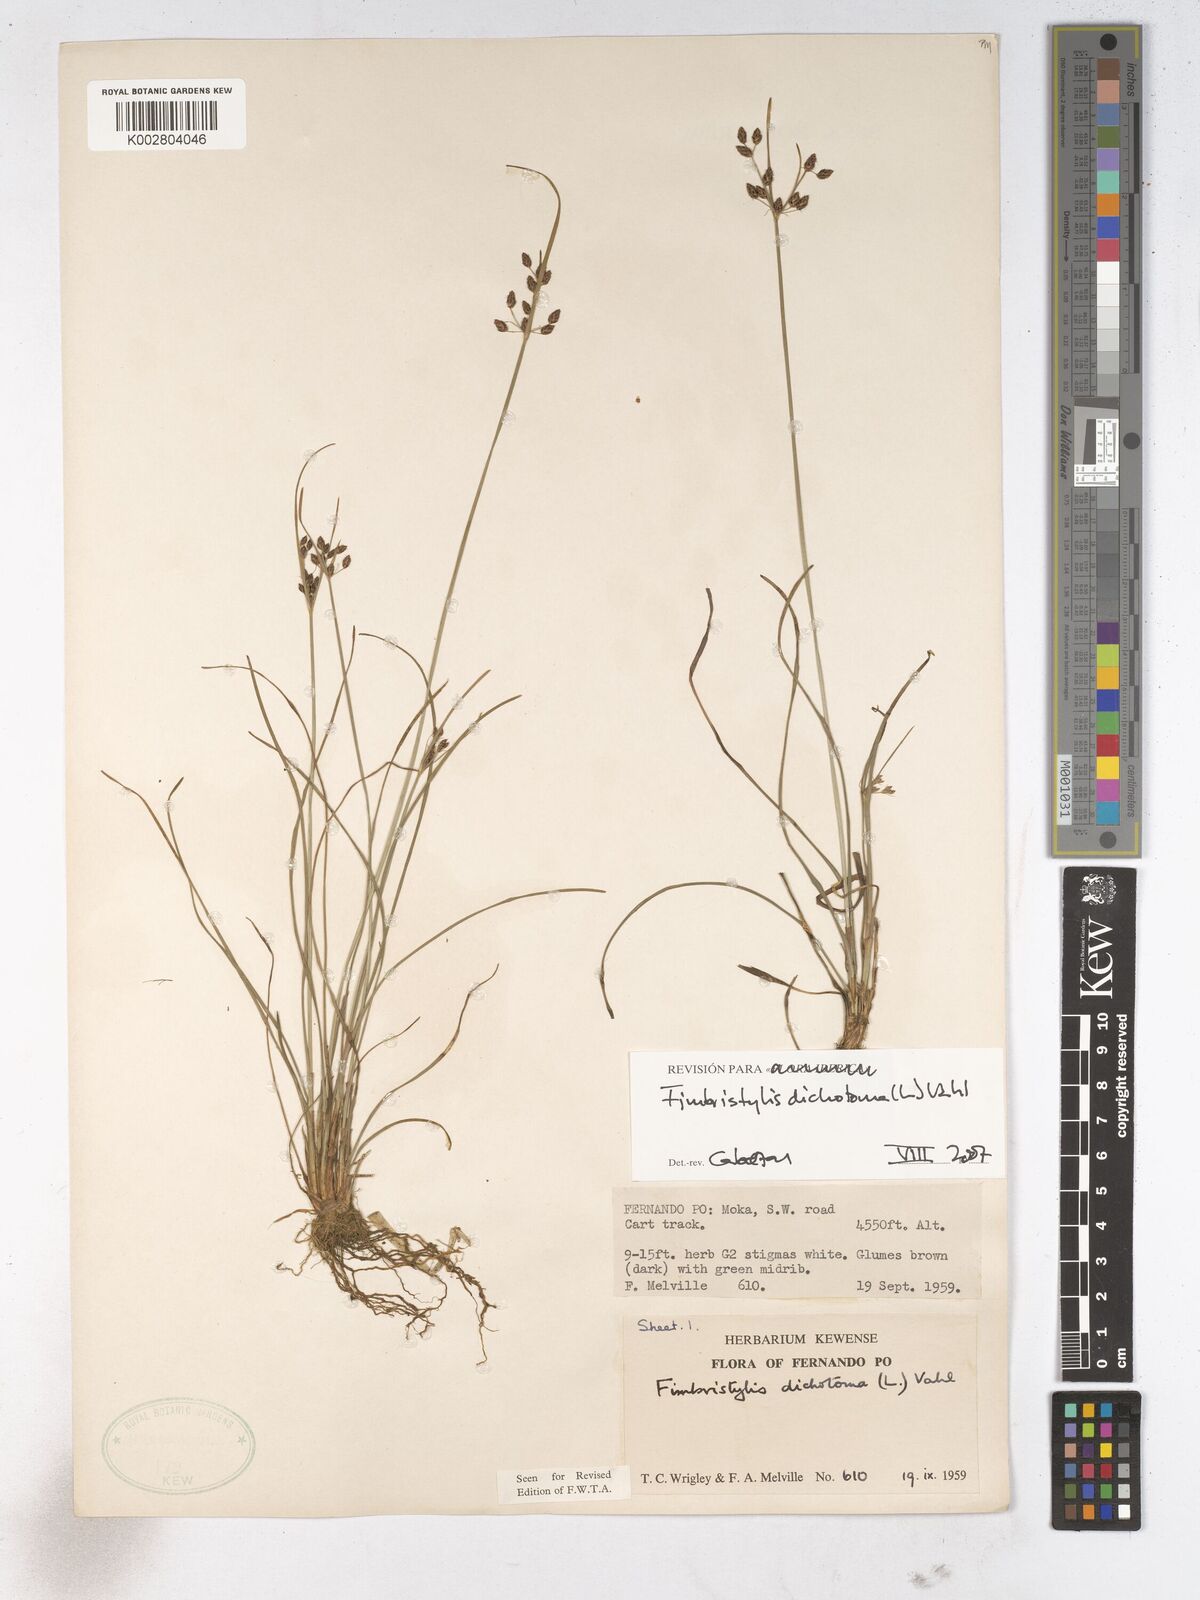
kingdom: Plantae
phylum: Tracheophyta
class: Liliopsida
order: Poales
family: Cyperaceae
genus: Fimbristylis
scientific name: Fimbristylis dichotoma
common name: Forked fimbry
